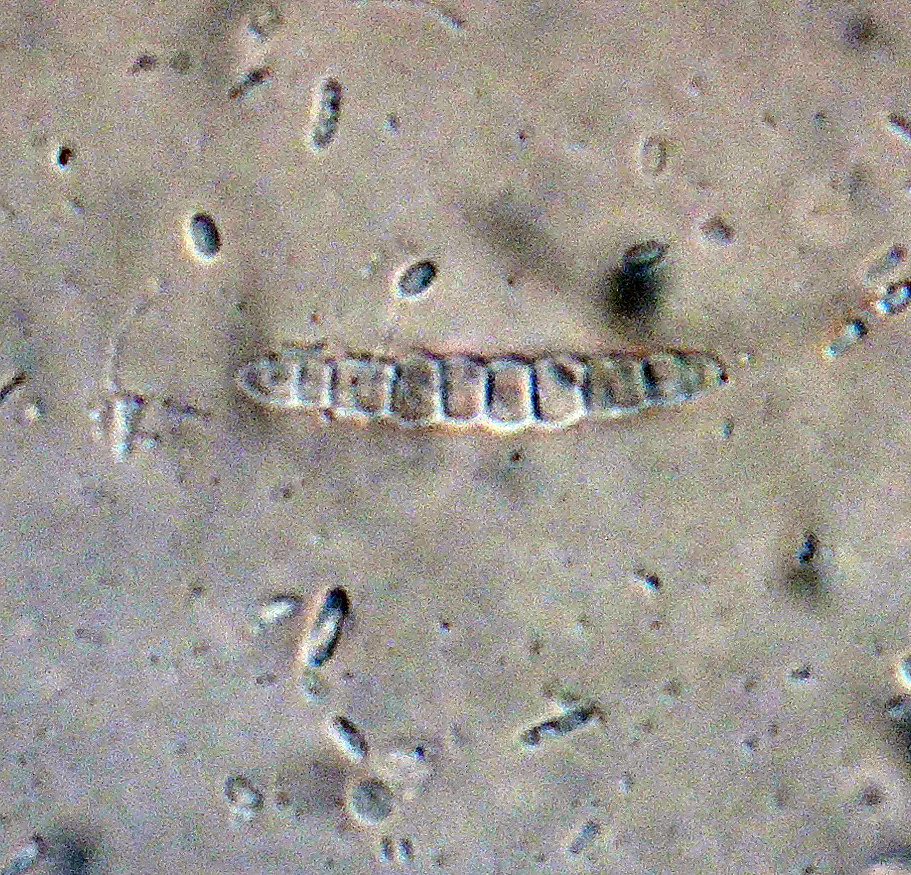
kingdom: Fungi
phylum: Ascomycota
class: Leotiomycetes
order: Leotiales
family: Tympanidaceae
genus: Vexillomyces
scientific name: Vexillomyces atrovirens
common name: sortgrøn linseskive
